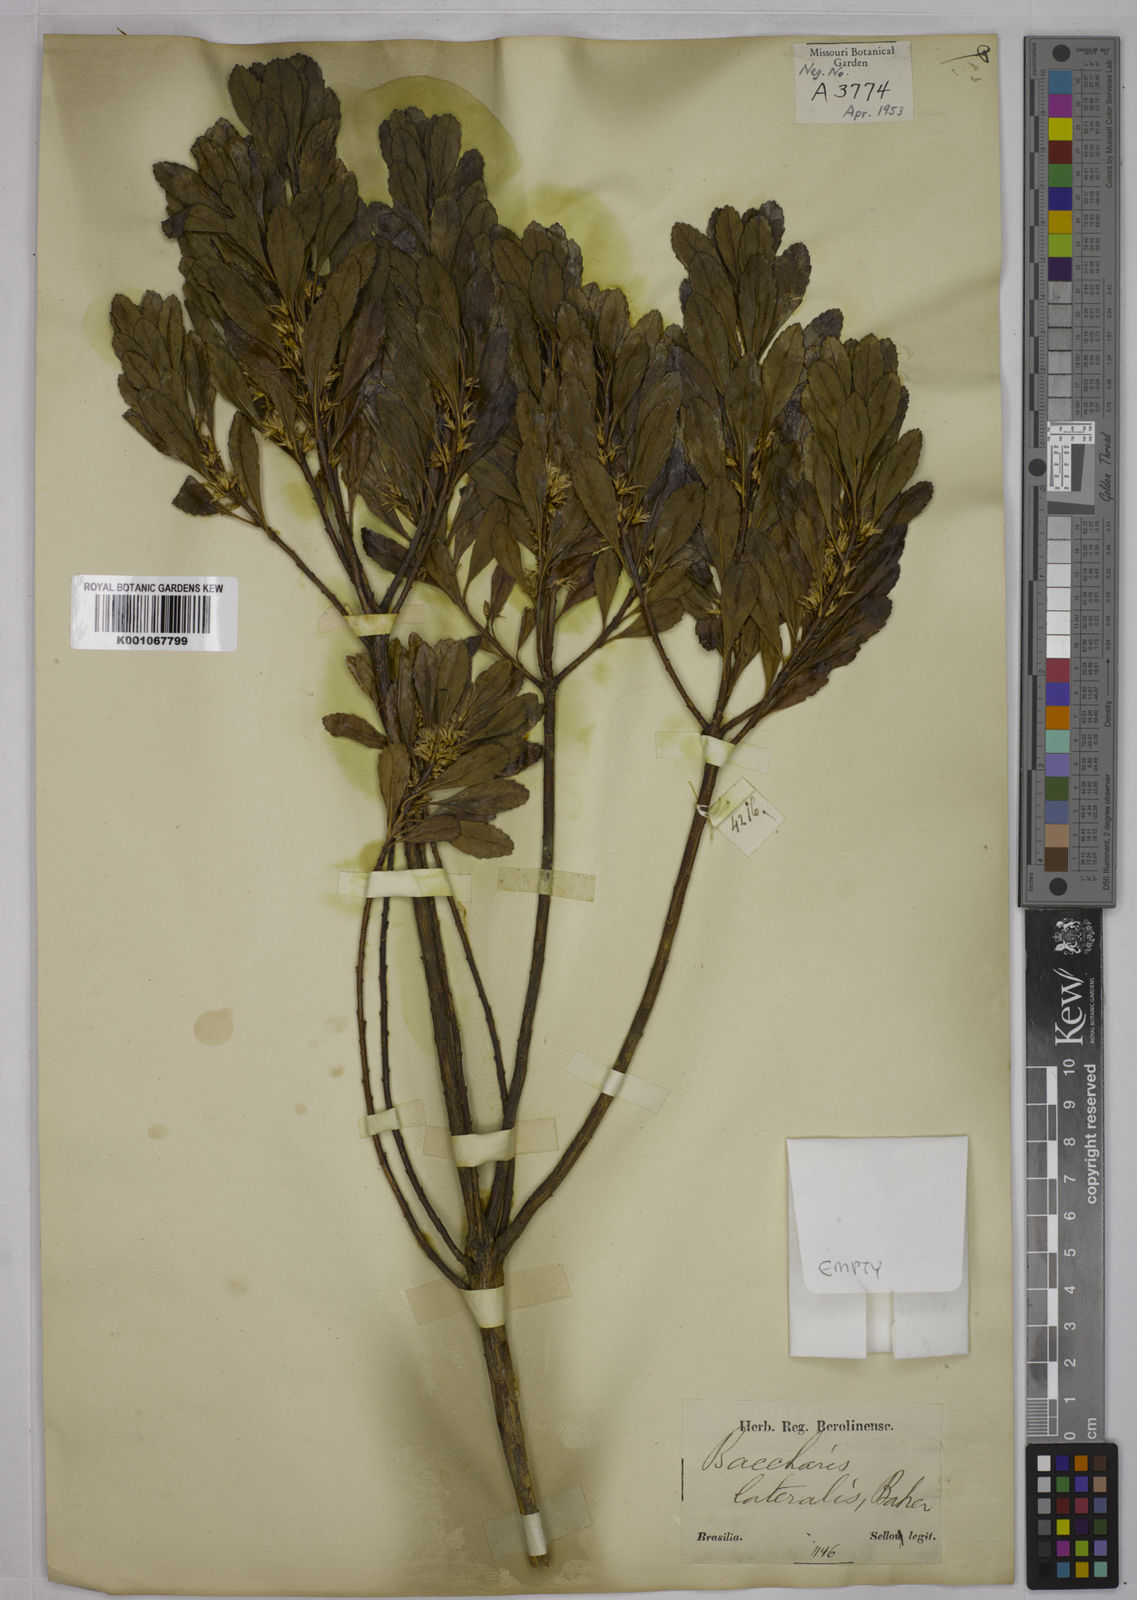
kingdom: Plantae
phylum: Tracheophyta
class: Magnoliopsida
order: Asterales
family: Asteraceae
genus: Baccharis
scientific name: Baccharis lateralis
